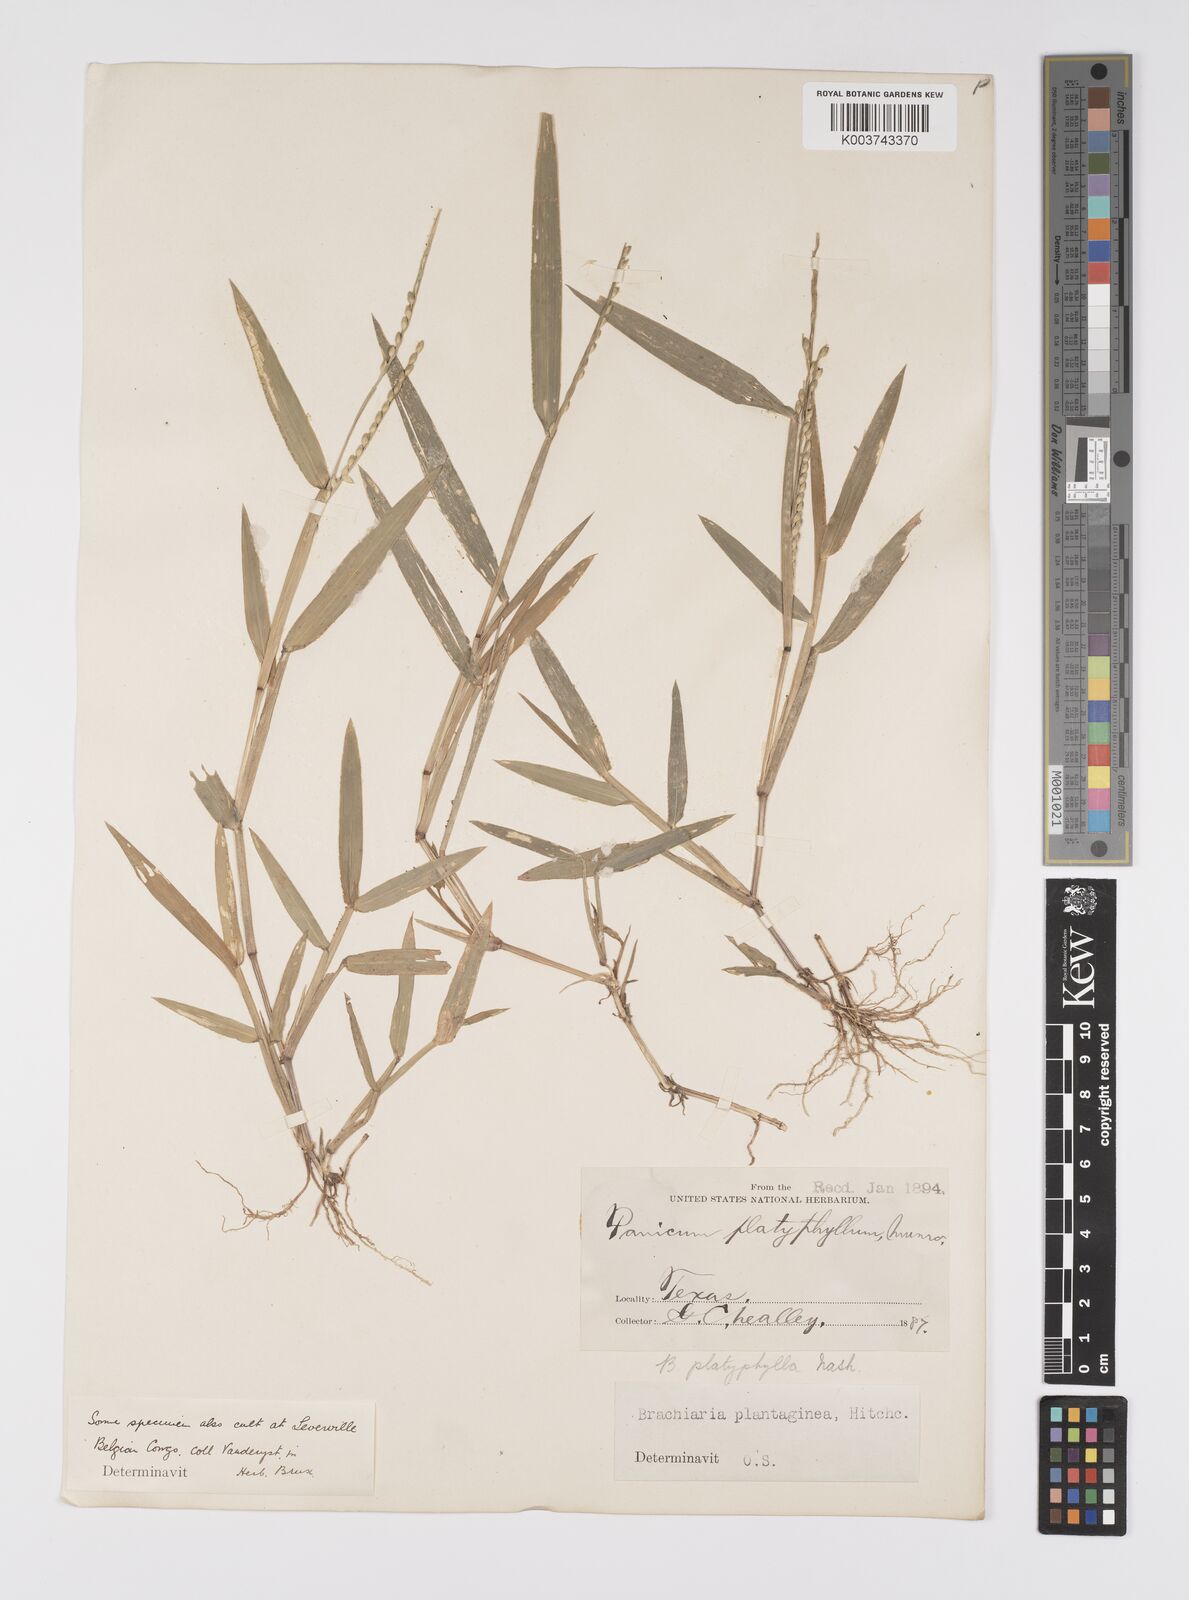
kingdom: Plantae
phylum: Tracheophyta
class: Liliopsida
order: Poales
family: Poaceae
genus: Urochloa
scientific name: Urochloa platyphylla
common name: White para grass
